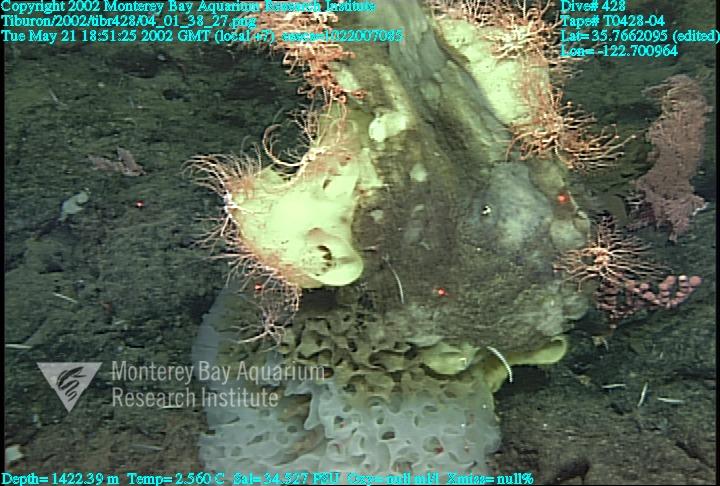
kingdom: Animalia
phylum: Porifera
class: Hexactinellida
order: Sceptrulophora
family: Farreidae
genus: Farrea
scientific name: Farrea occa
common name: Reversed glass sponge
